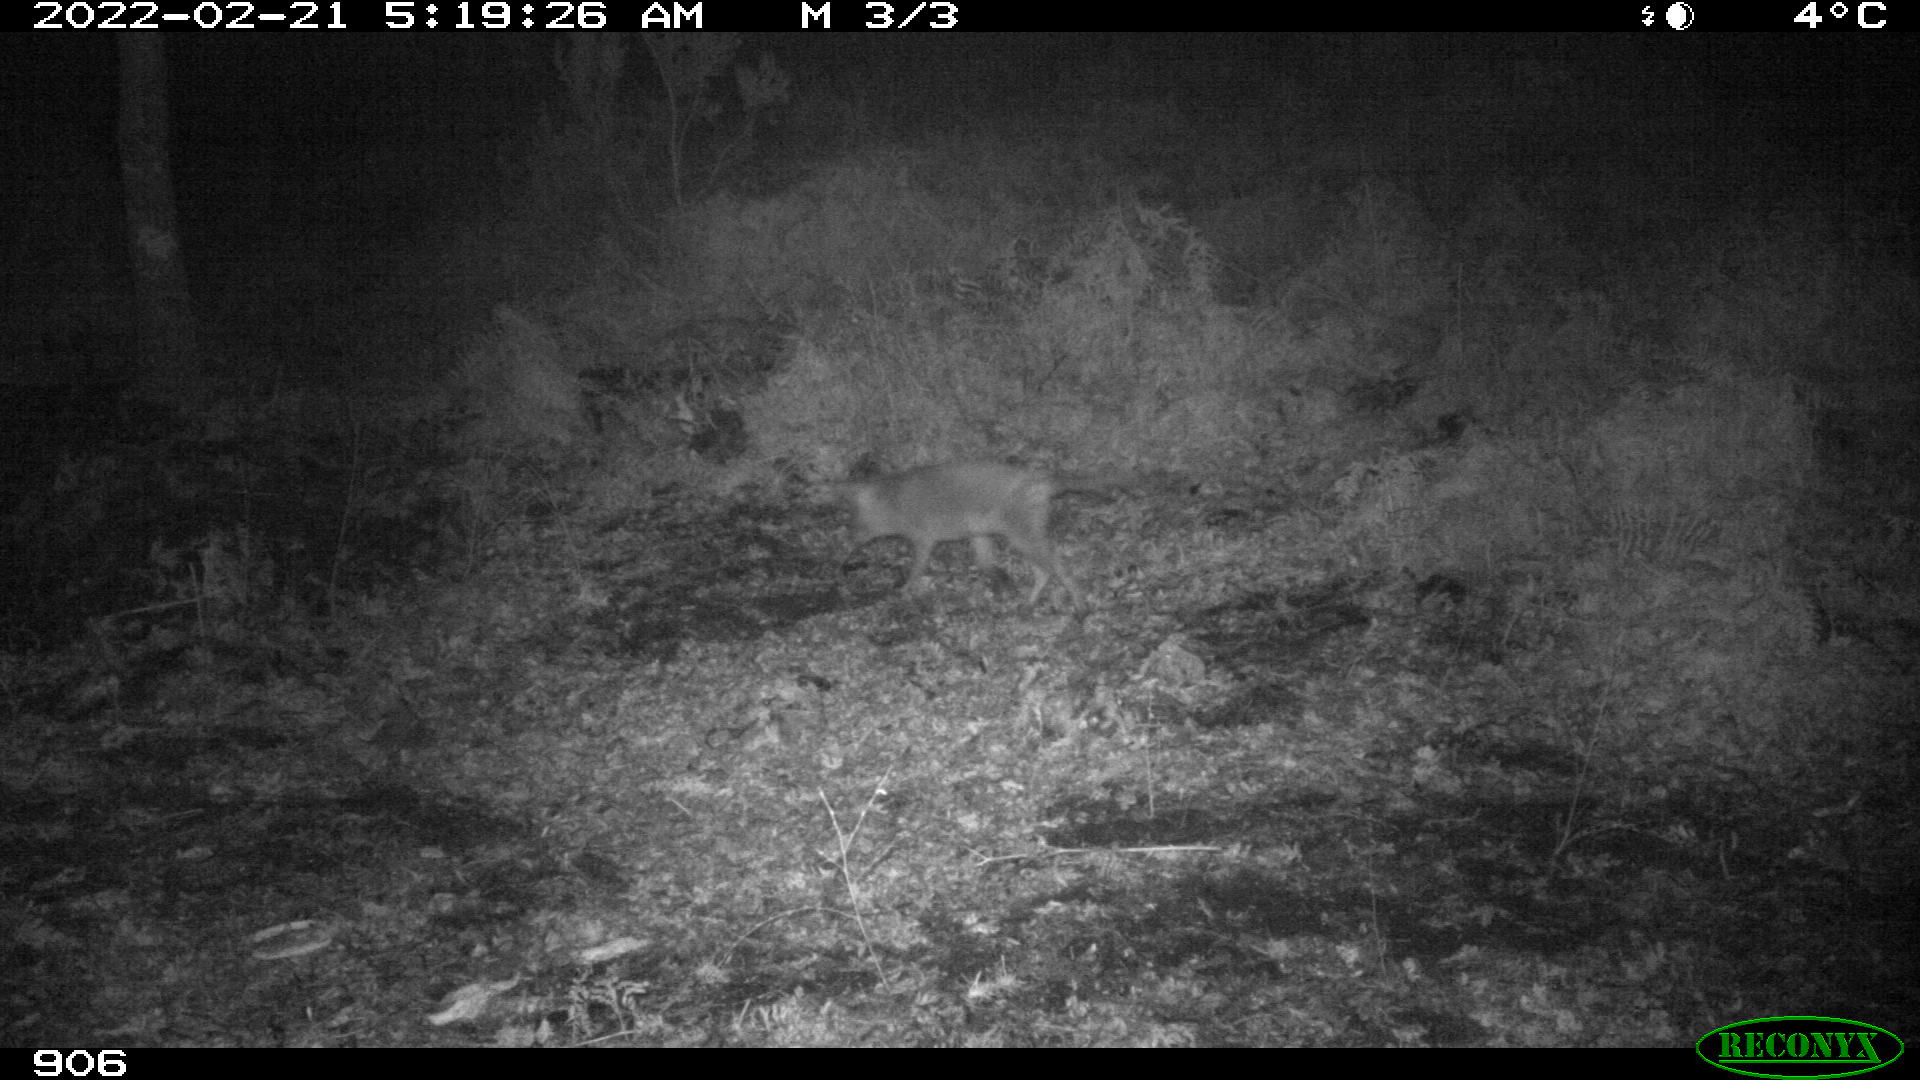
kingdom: Animalia
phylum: Chordata
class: Mammalia
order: Carnivora
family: Canidae
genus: Canis
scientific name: Canis lupus
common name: Gray wolf
